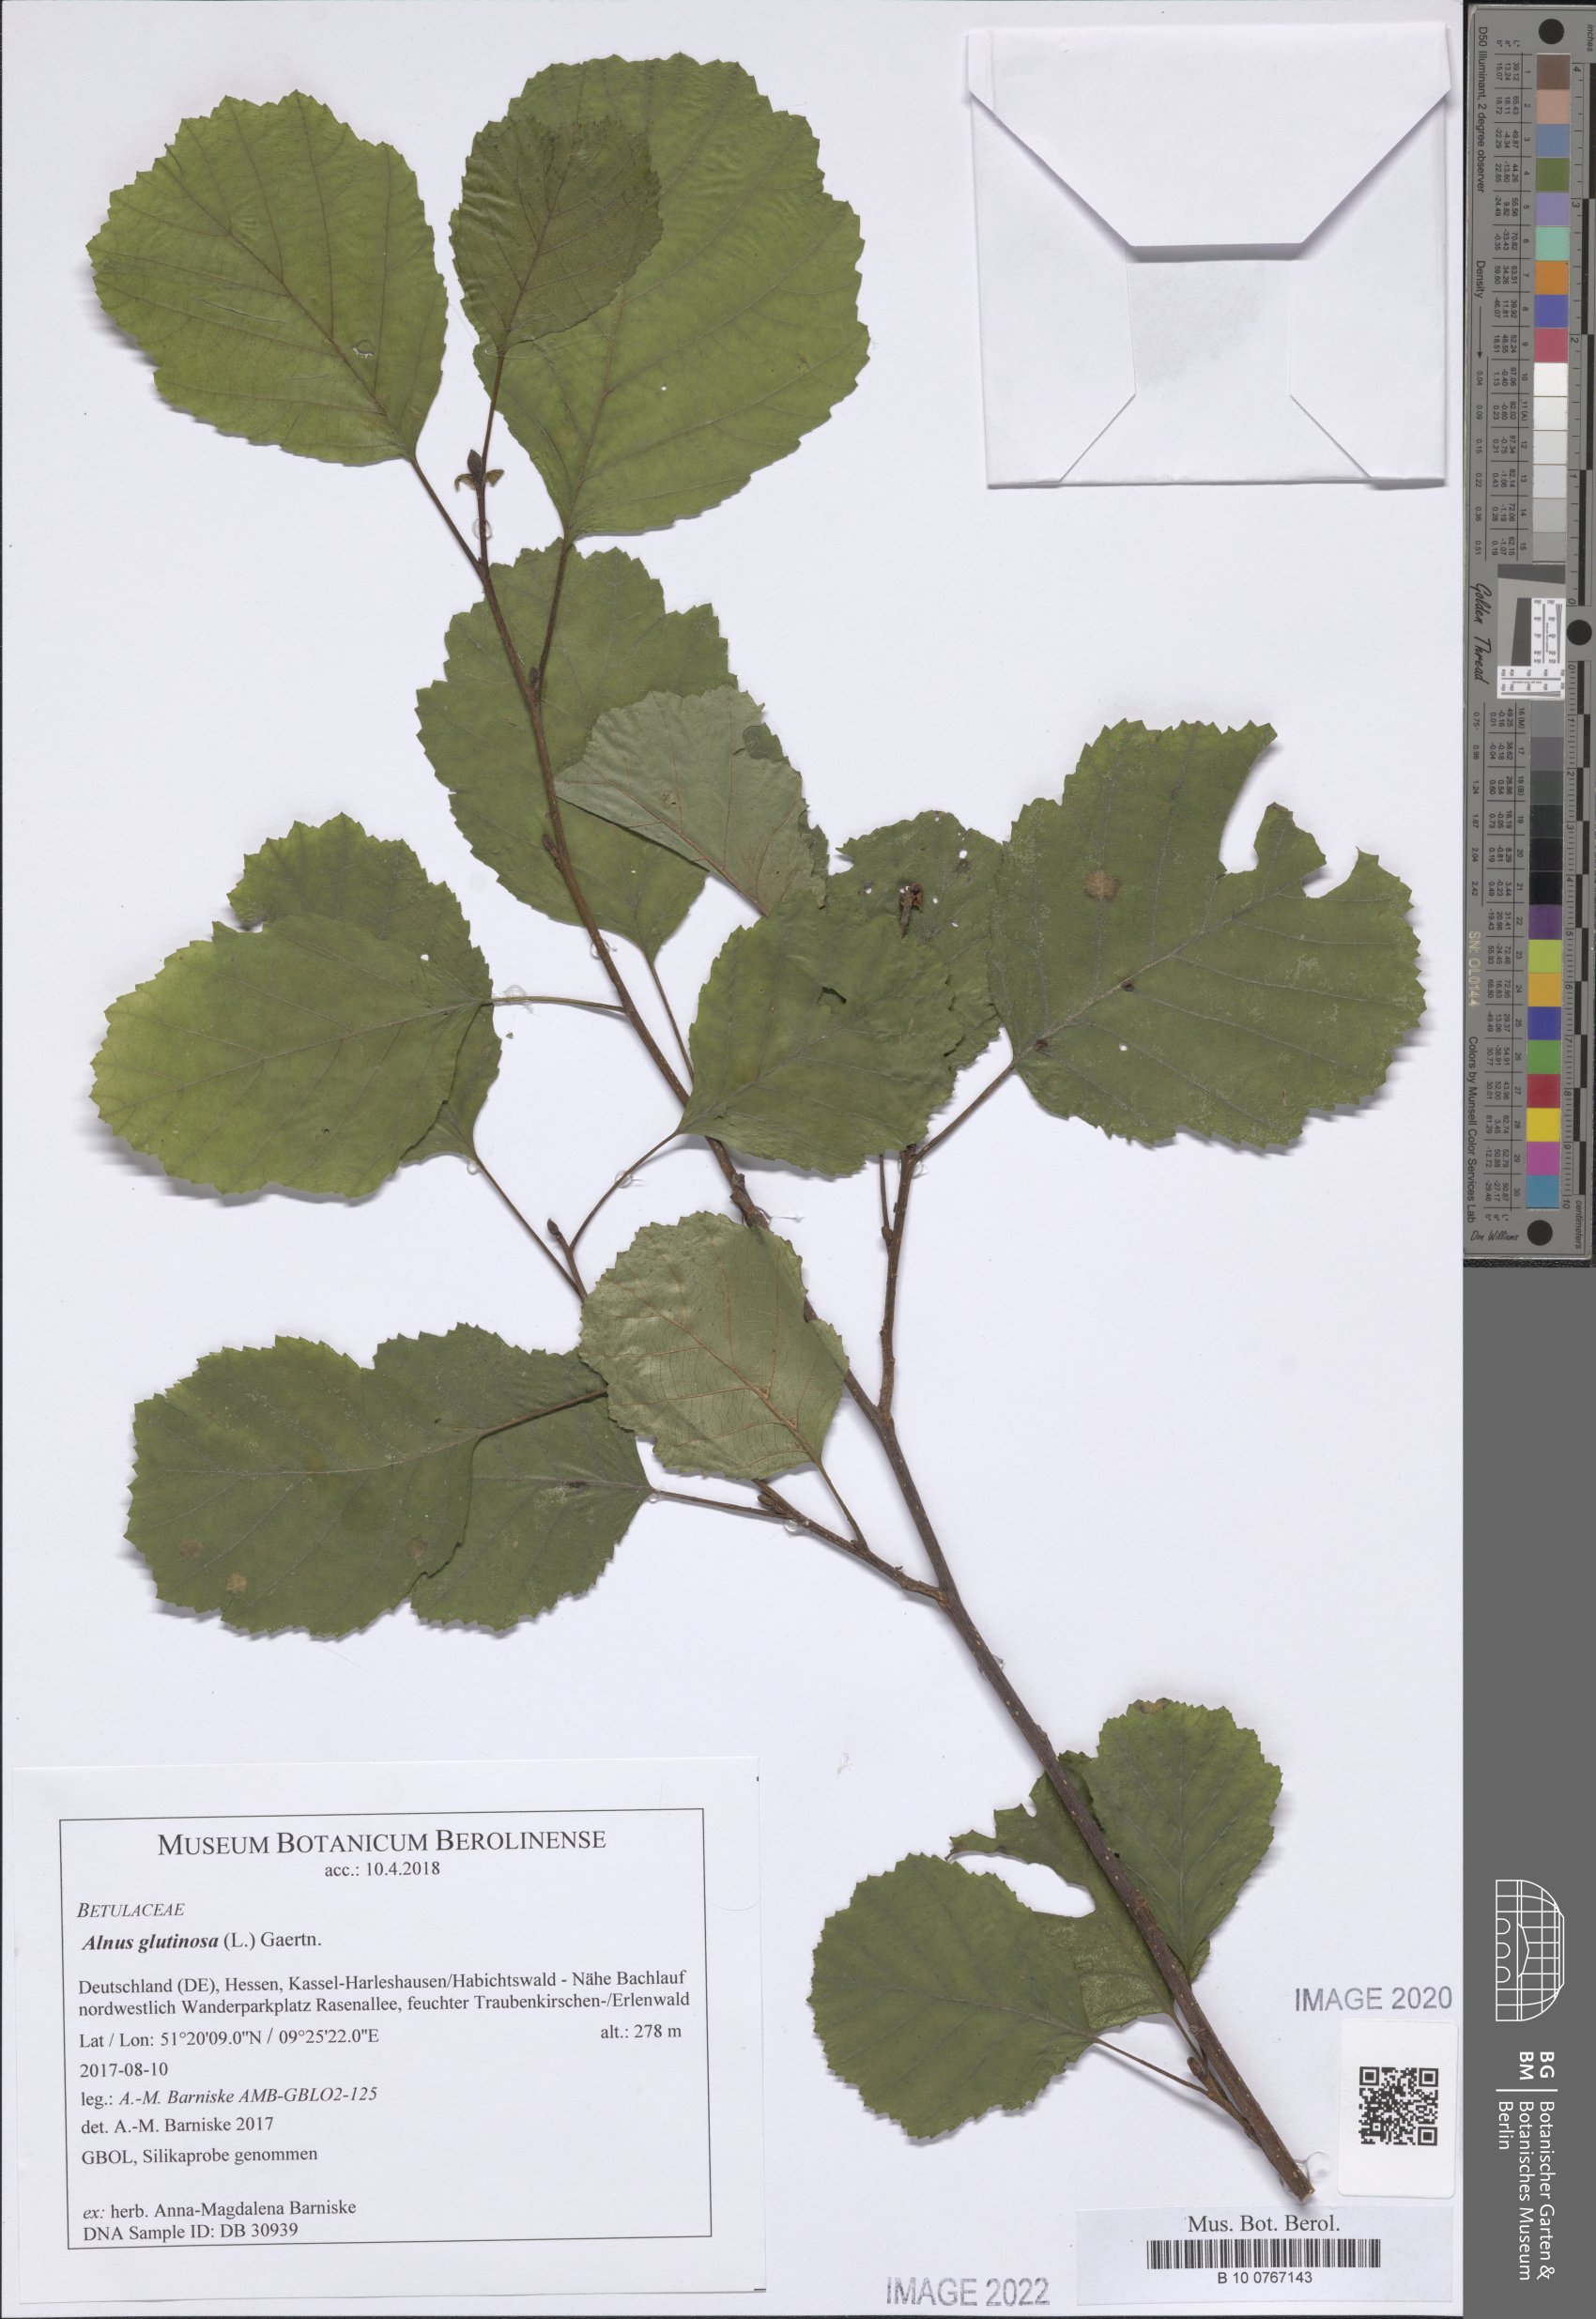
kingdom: Plantae
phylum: Tracheophyta
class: Magnoliopsida
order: Fagales
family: Betulaceae
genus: Alnus
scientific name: Alnus glutinosa
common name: Black alder
